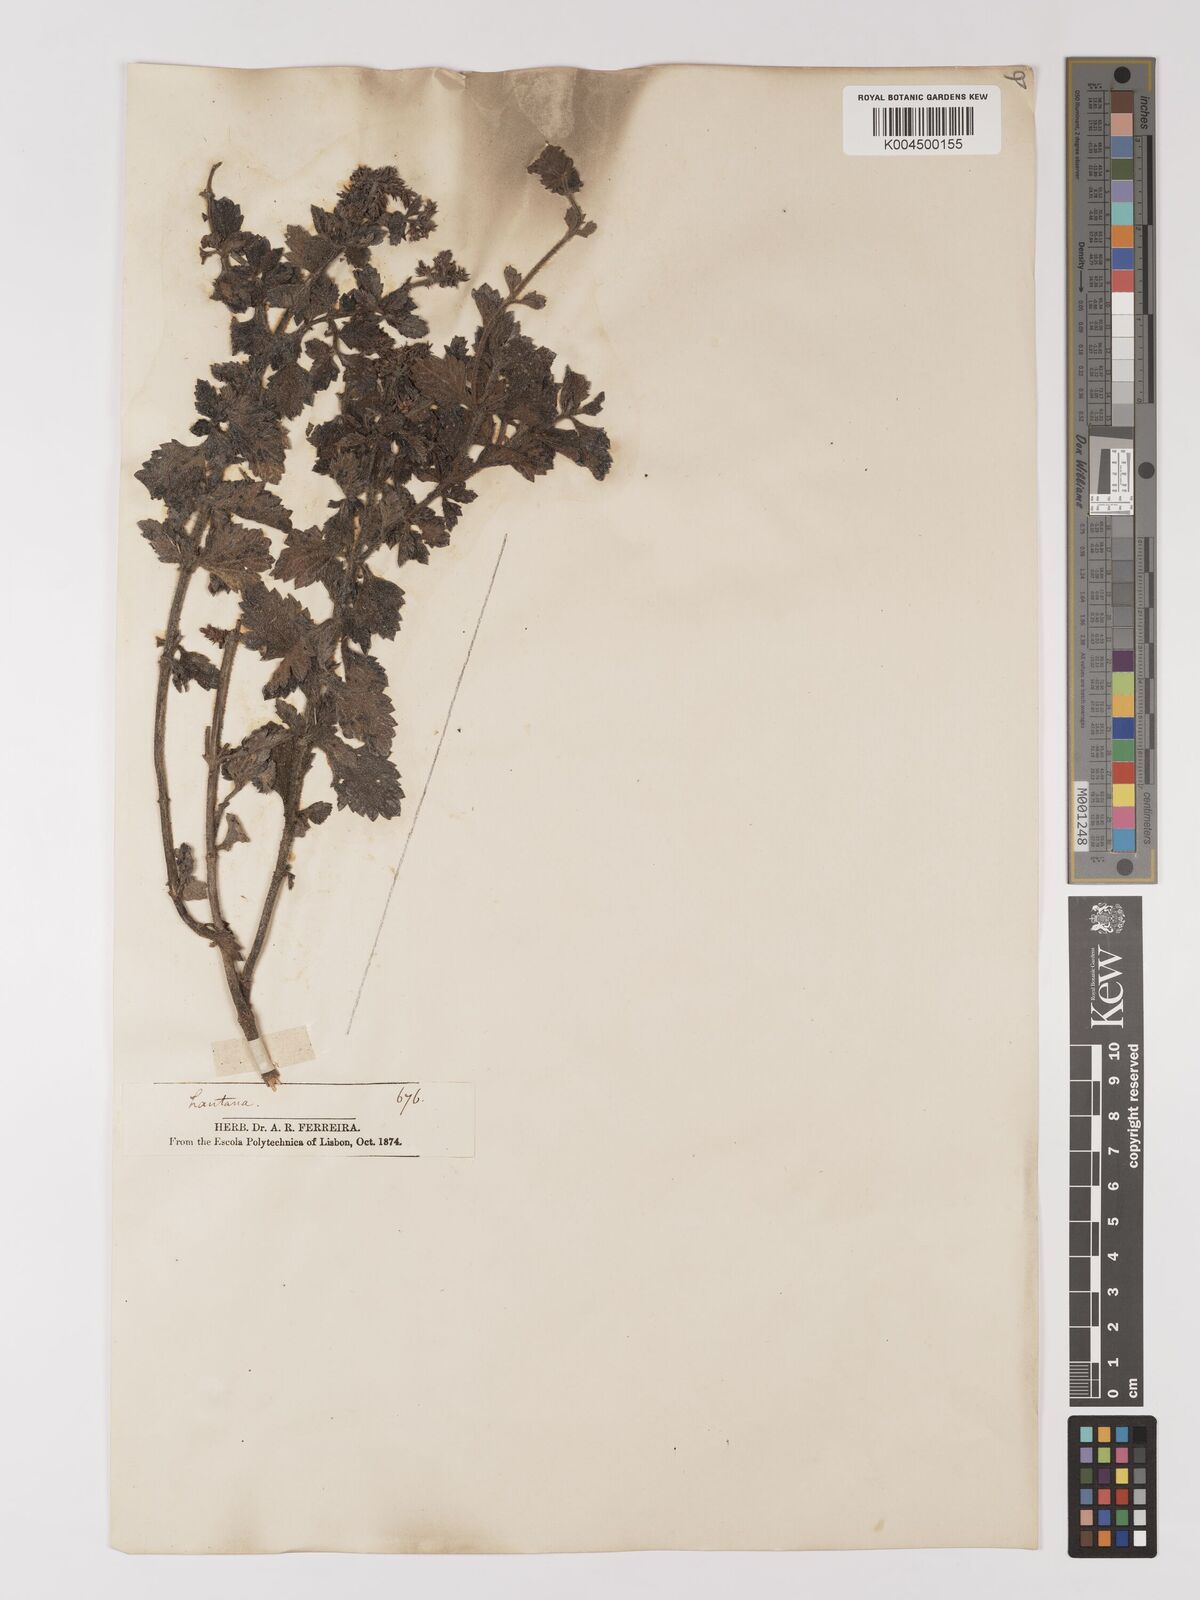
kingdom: Plantae
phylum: Tracheophyta
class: Magnoliopsida
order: Lamiales
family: Verbenaceae
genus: Verbena
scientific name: Verbena hirta
